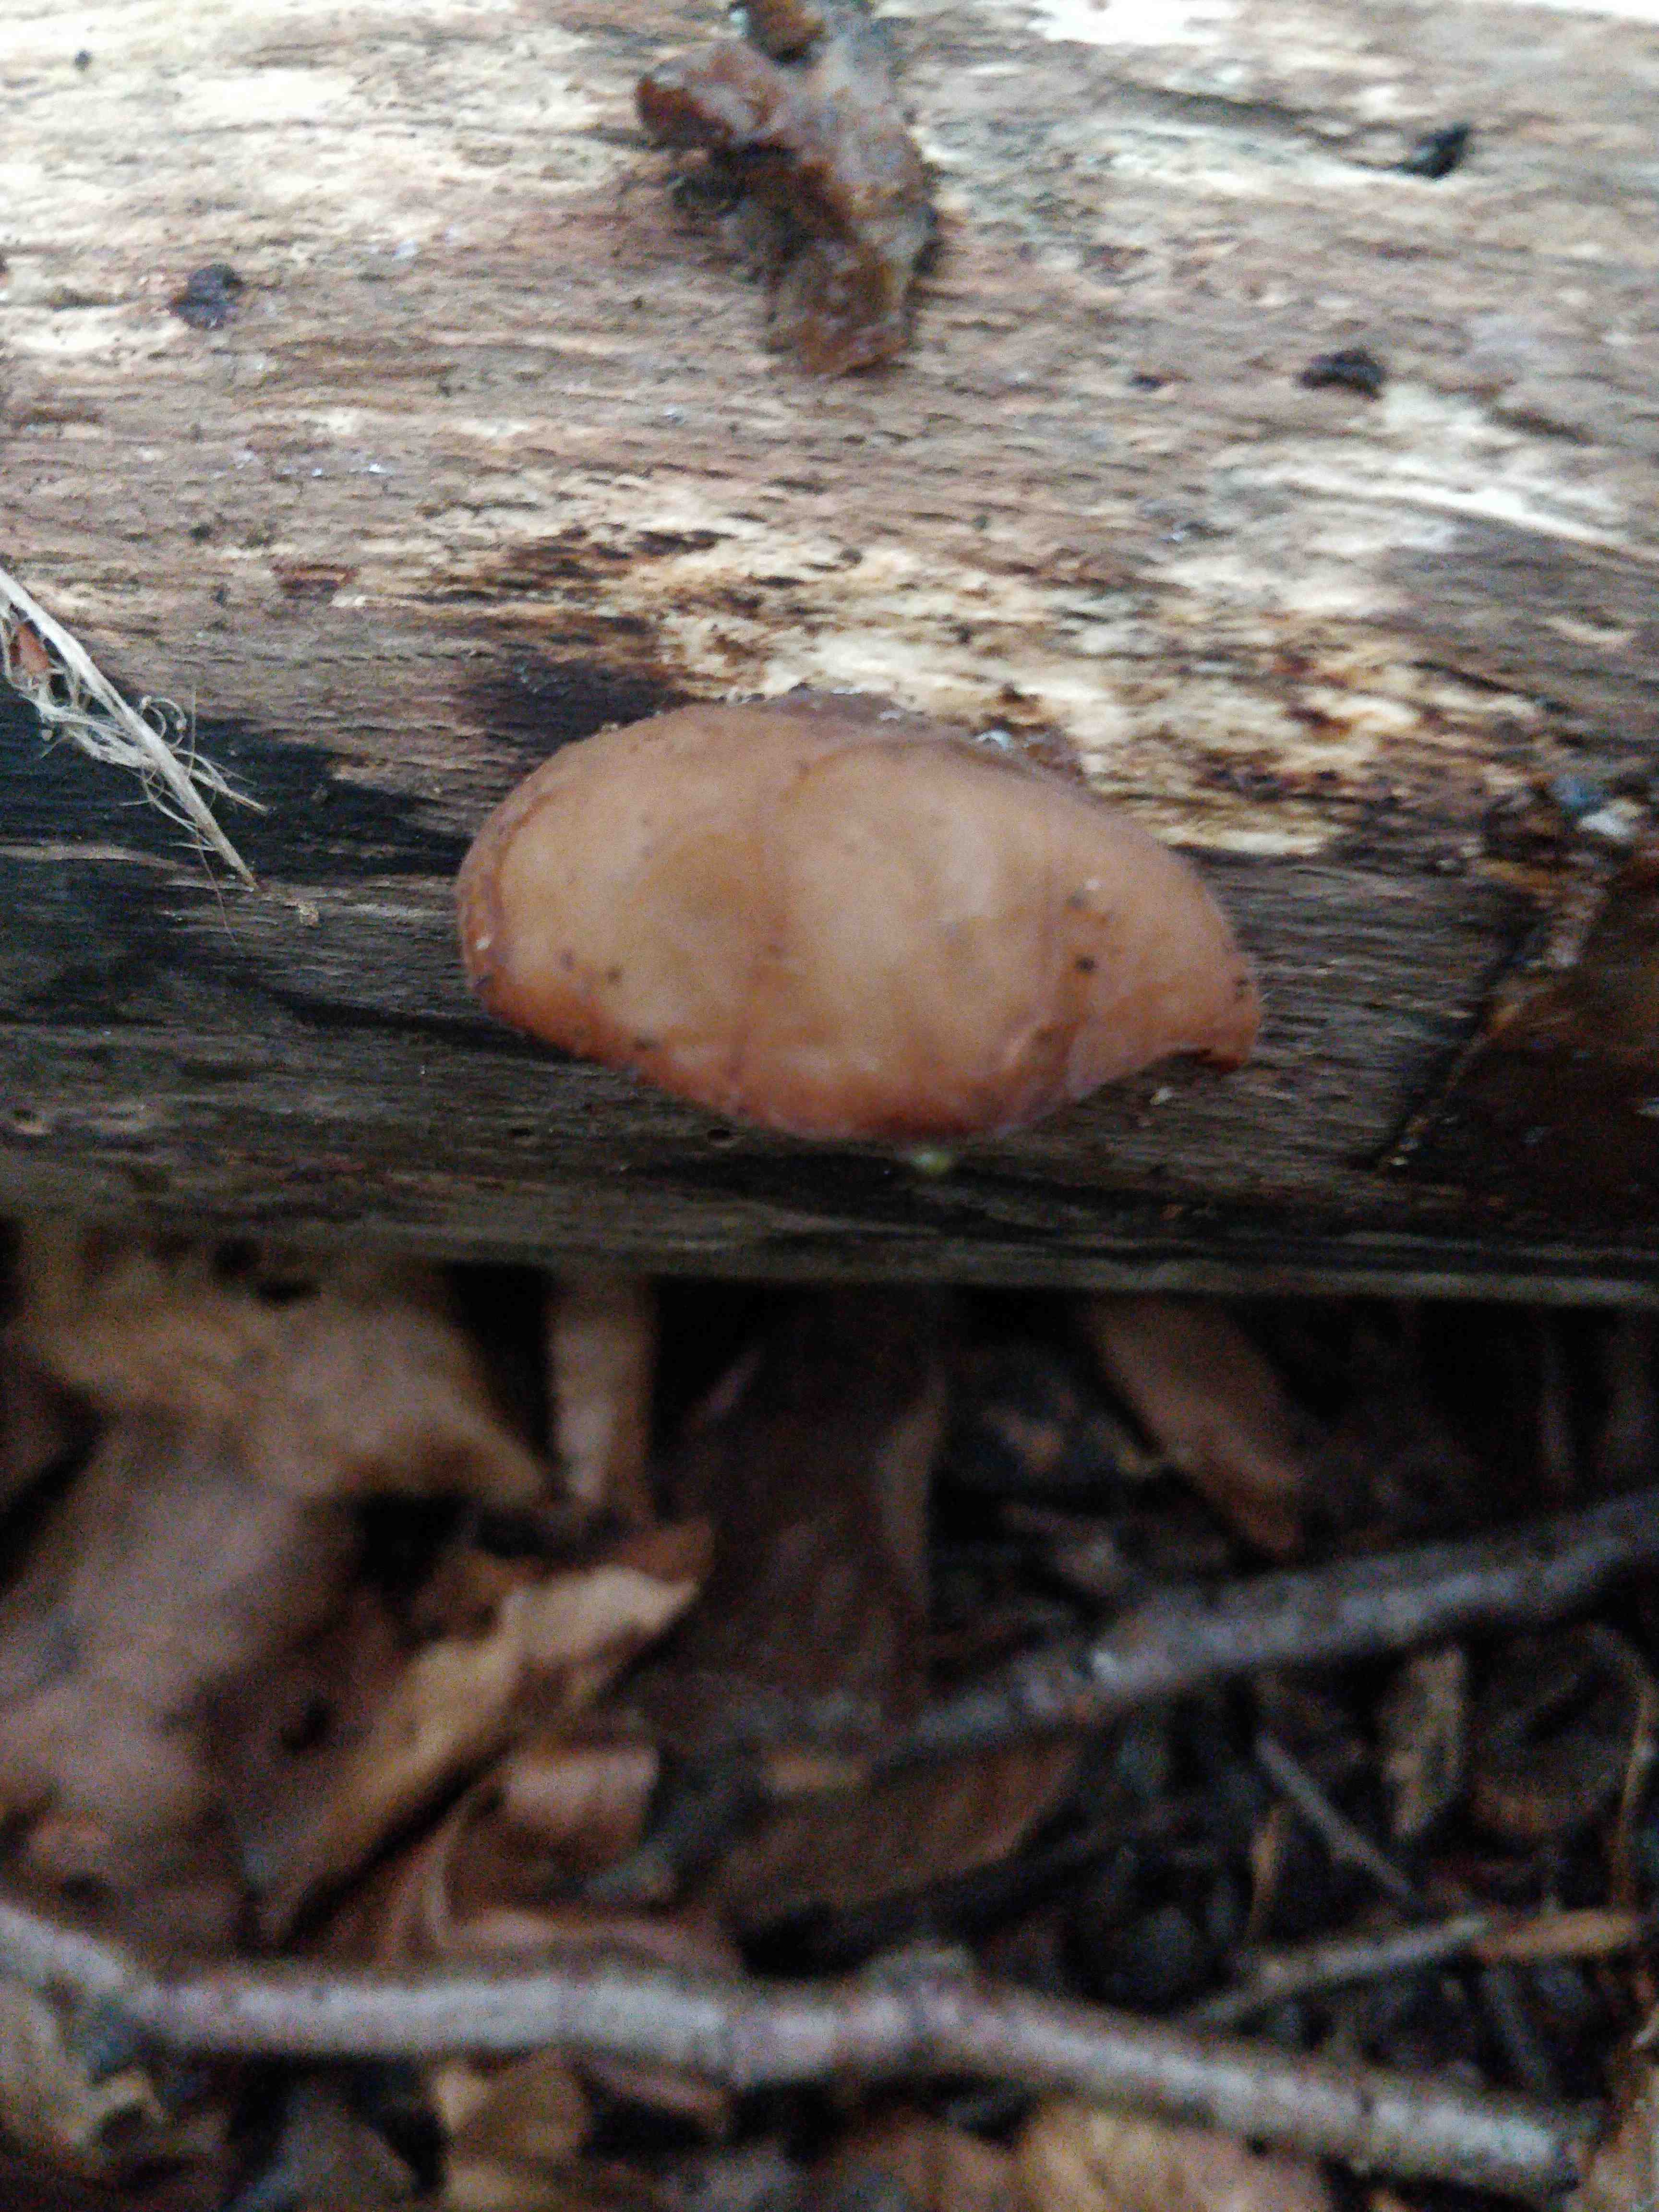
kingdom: Fungi
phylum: Basidiomycota
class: Agaricomycetes
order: Auriculariales
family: Auriculariaceae
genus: Auricularia
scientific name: Auricularia auricula-judae
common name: almindelig judasøre
